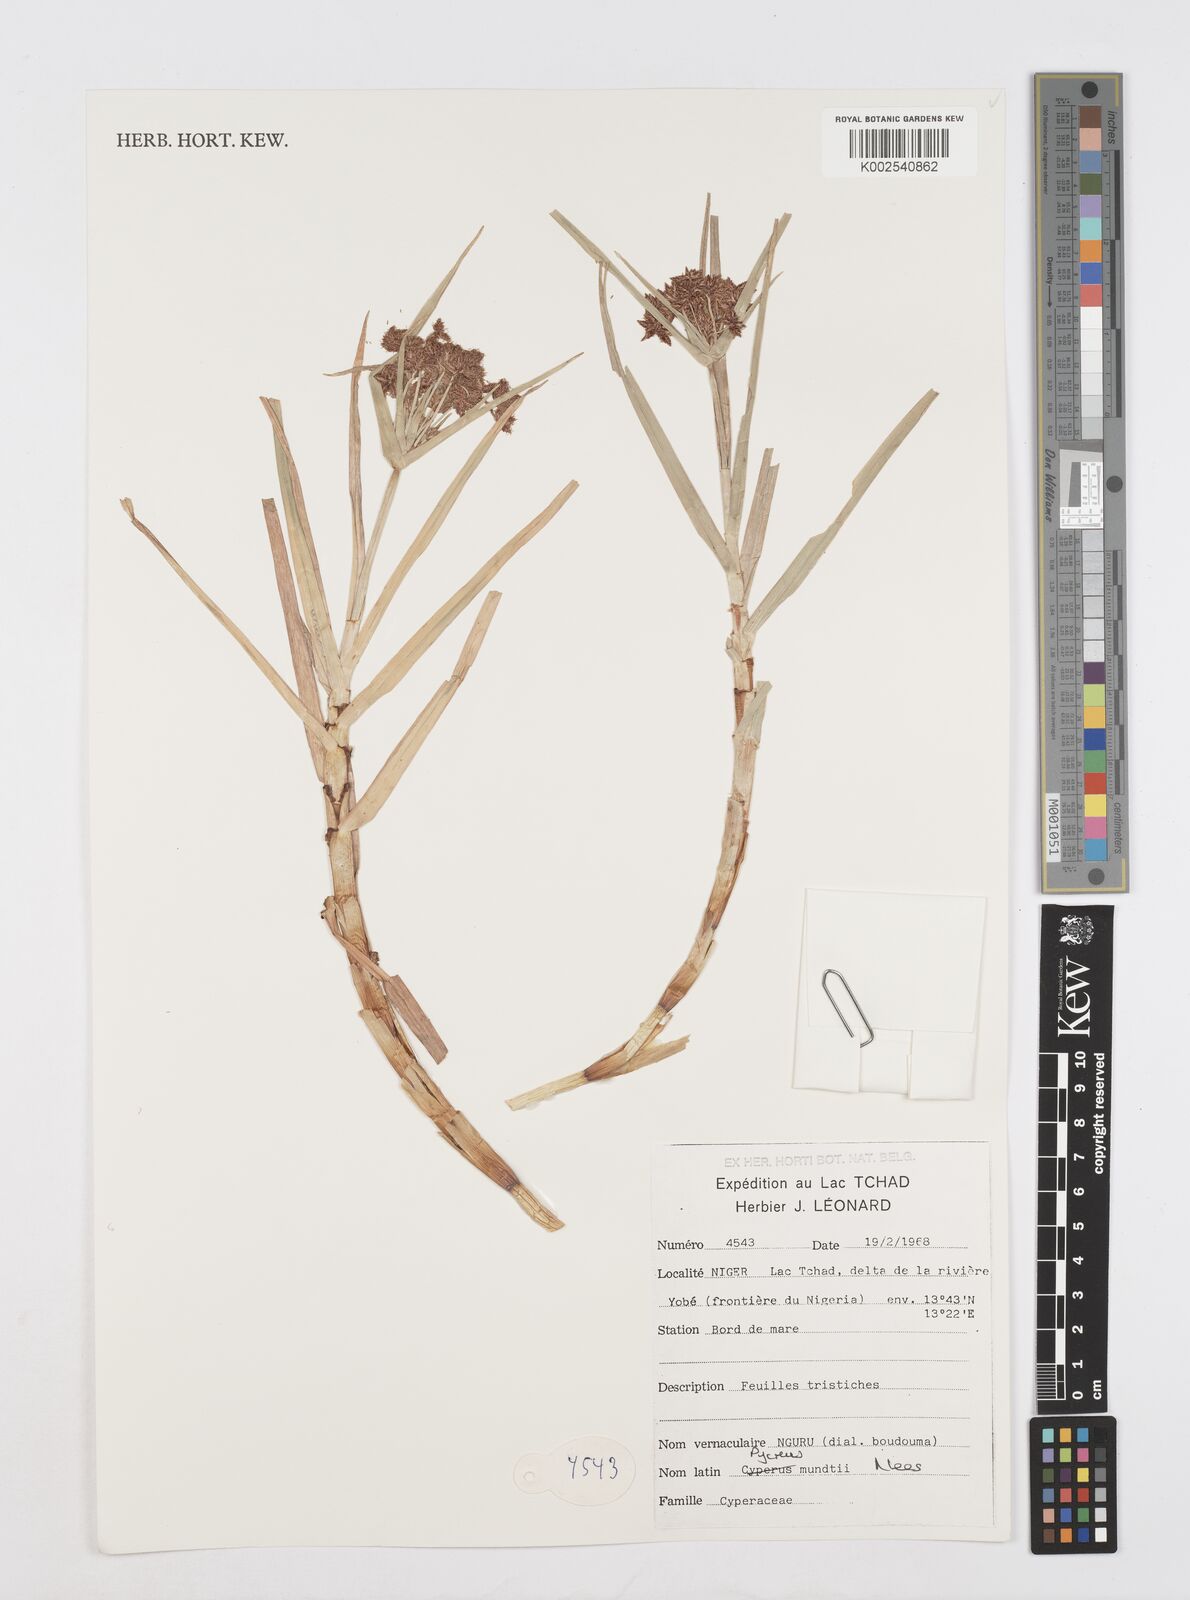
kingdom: Plantae
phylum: Tracheophyta
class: Liliopsida
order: Poales
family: Cyperaceae
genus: Cyperus
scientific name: Cyperus mundii
